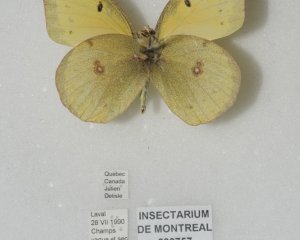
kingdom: Animalia
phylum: Arthropoda
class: Insecta
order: Lepidoptera
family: Pieridae
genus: Colias
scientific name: Colias eurytheme
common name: Orange Sulphur
